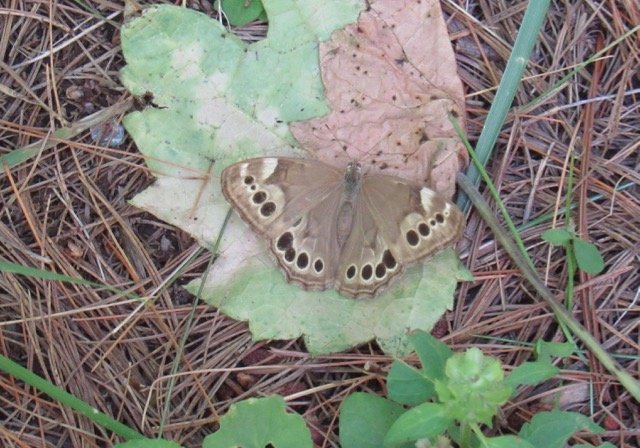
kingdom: Animalia
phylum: Arthropoda
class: Insecta
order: Lepidoptera
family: Nymphalidae
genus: Lethe
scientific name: Lethe anthedon
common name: Northern Pearly-Eye
